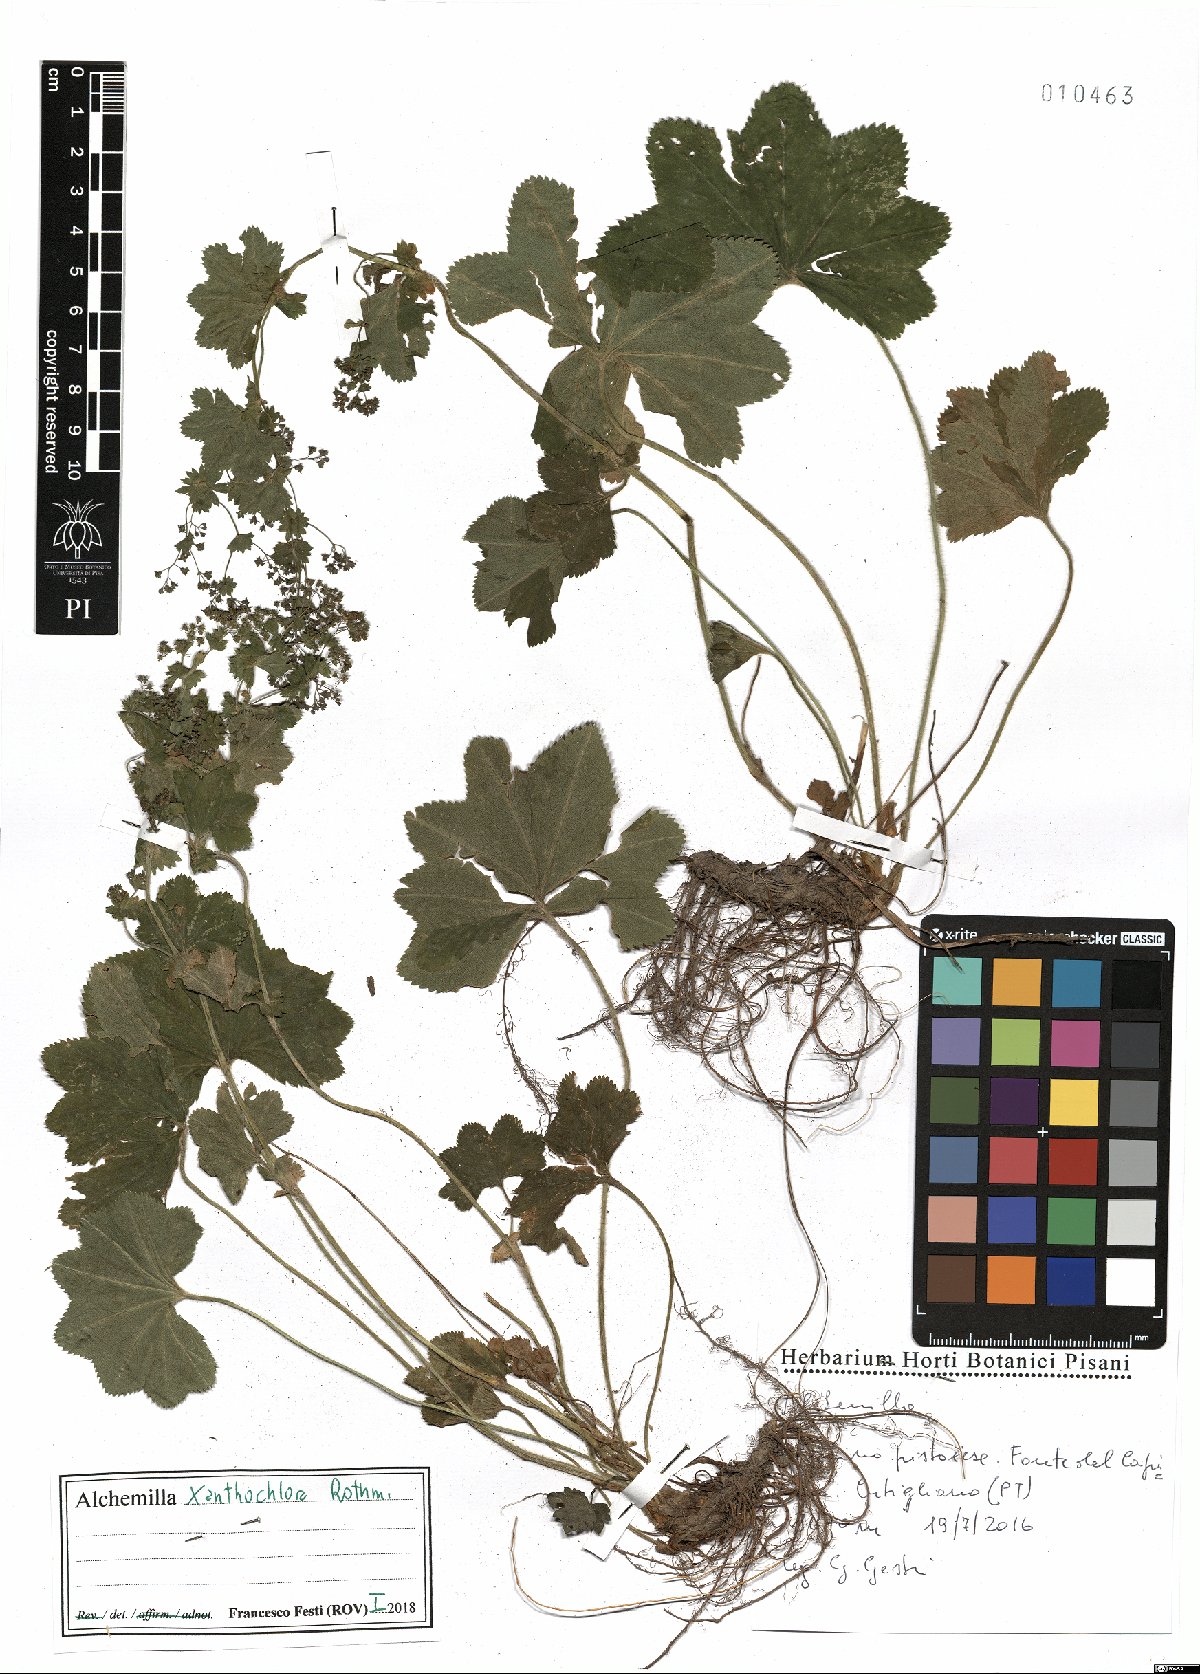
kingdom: Plantae
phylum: Tracheophyta
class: Magnoliopsida
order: Rosales
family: Rosaceae
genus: Alchemilla
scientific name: Alchemilla xanthochlora
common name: Intermediate lady's-mantle
